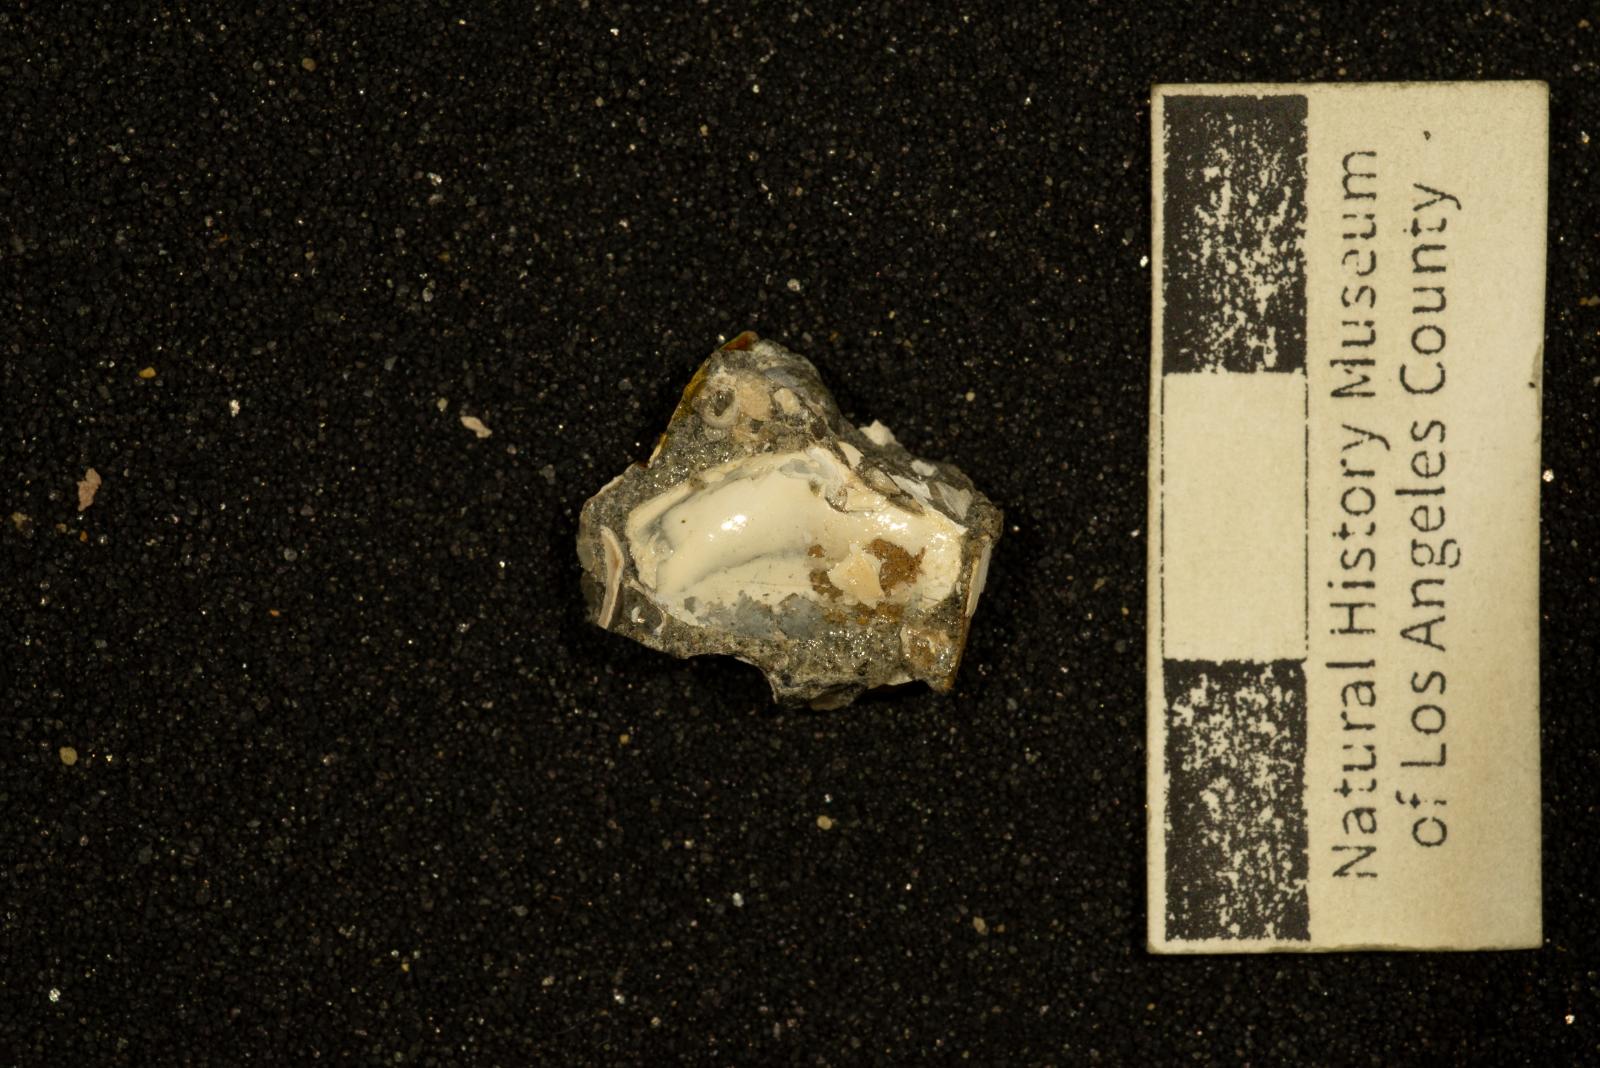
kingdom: Animalia
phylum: Mollusca
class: Bivalvia
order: Venerida
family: Mesodesmatidae
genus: Califadesma
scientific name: Califadesma tuscanum
